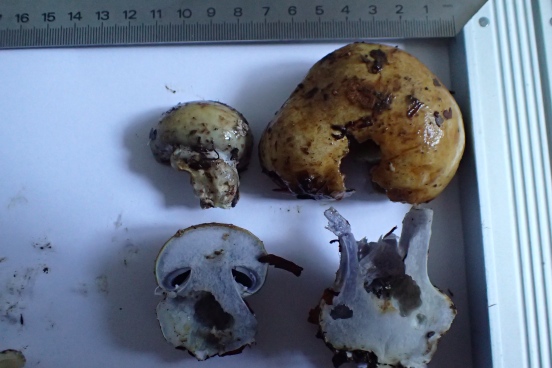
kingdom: Fungi
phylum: Basidiomycota
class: Agaricomycetes
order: Agaricales
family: Cortinariaceae
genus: Cortinarius
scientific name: Cortinarius
